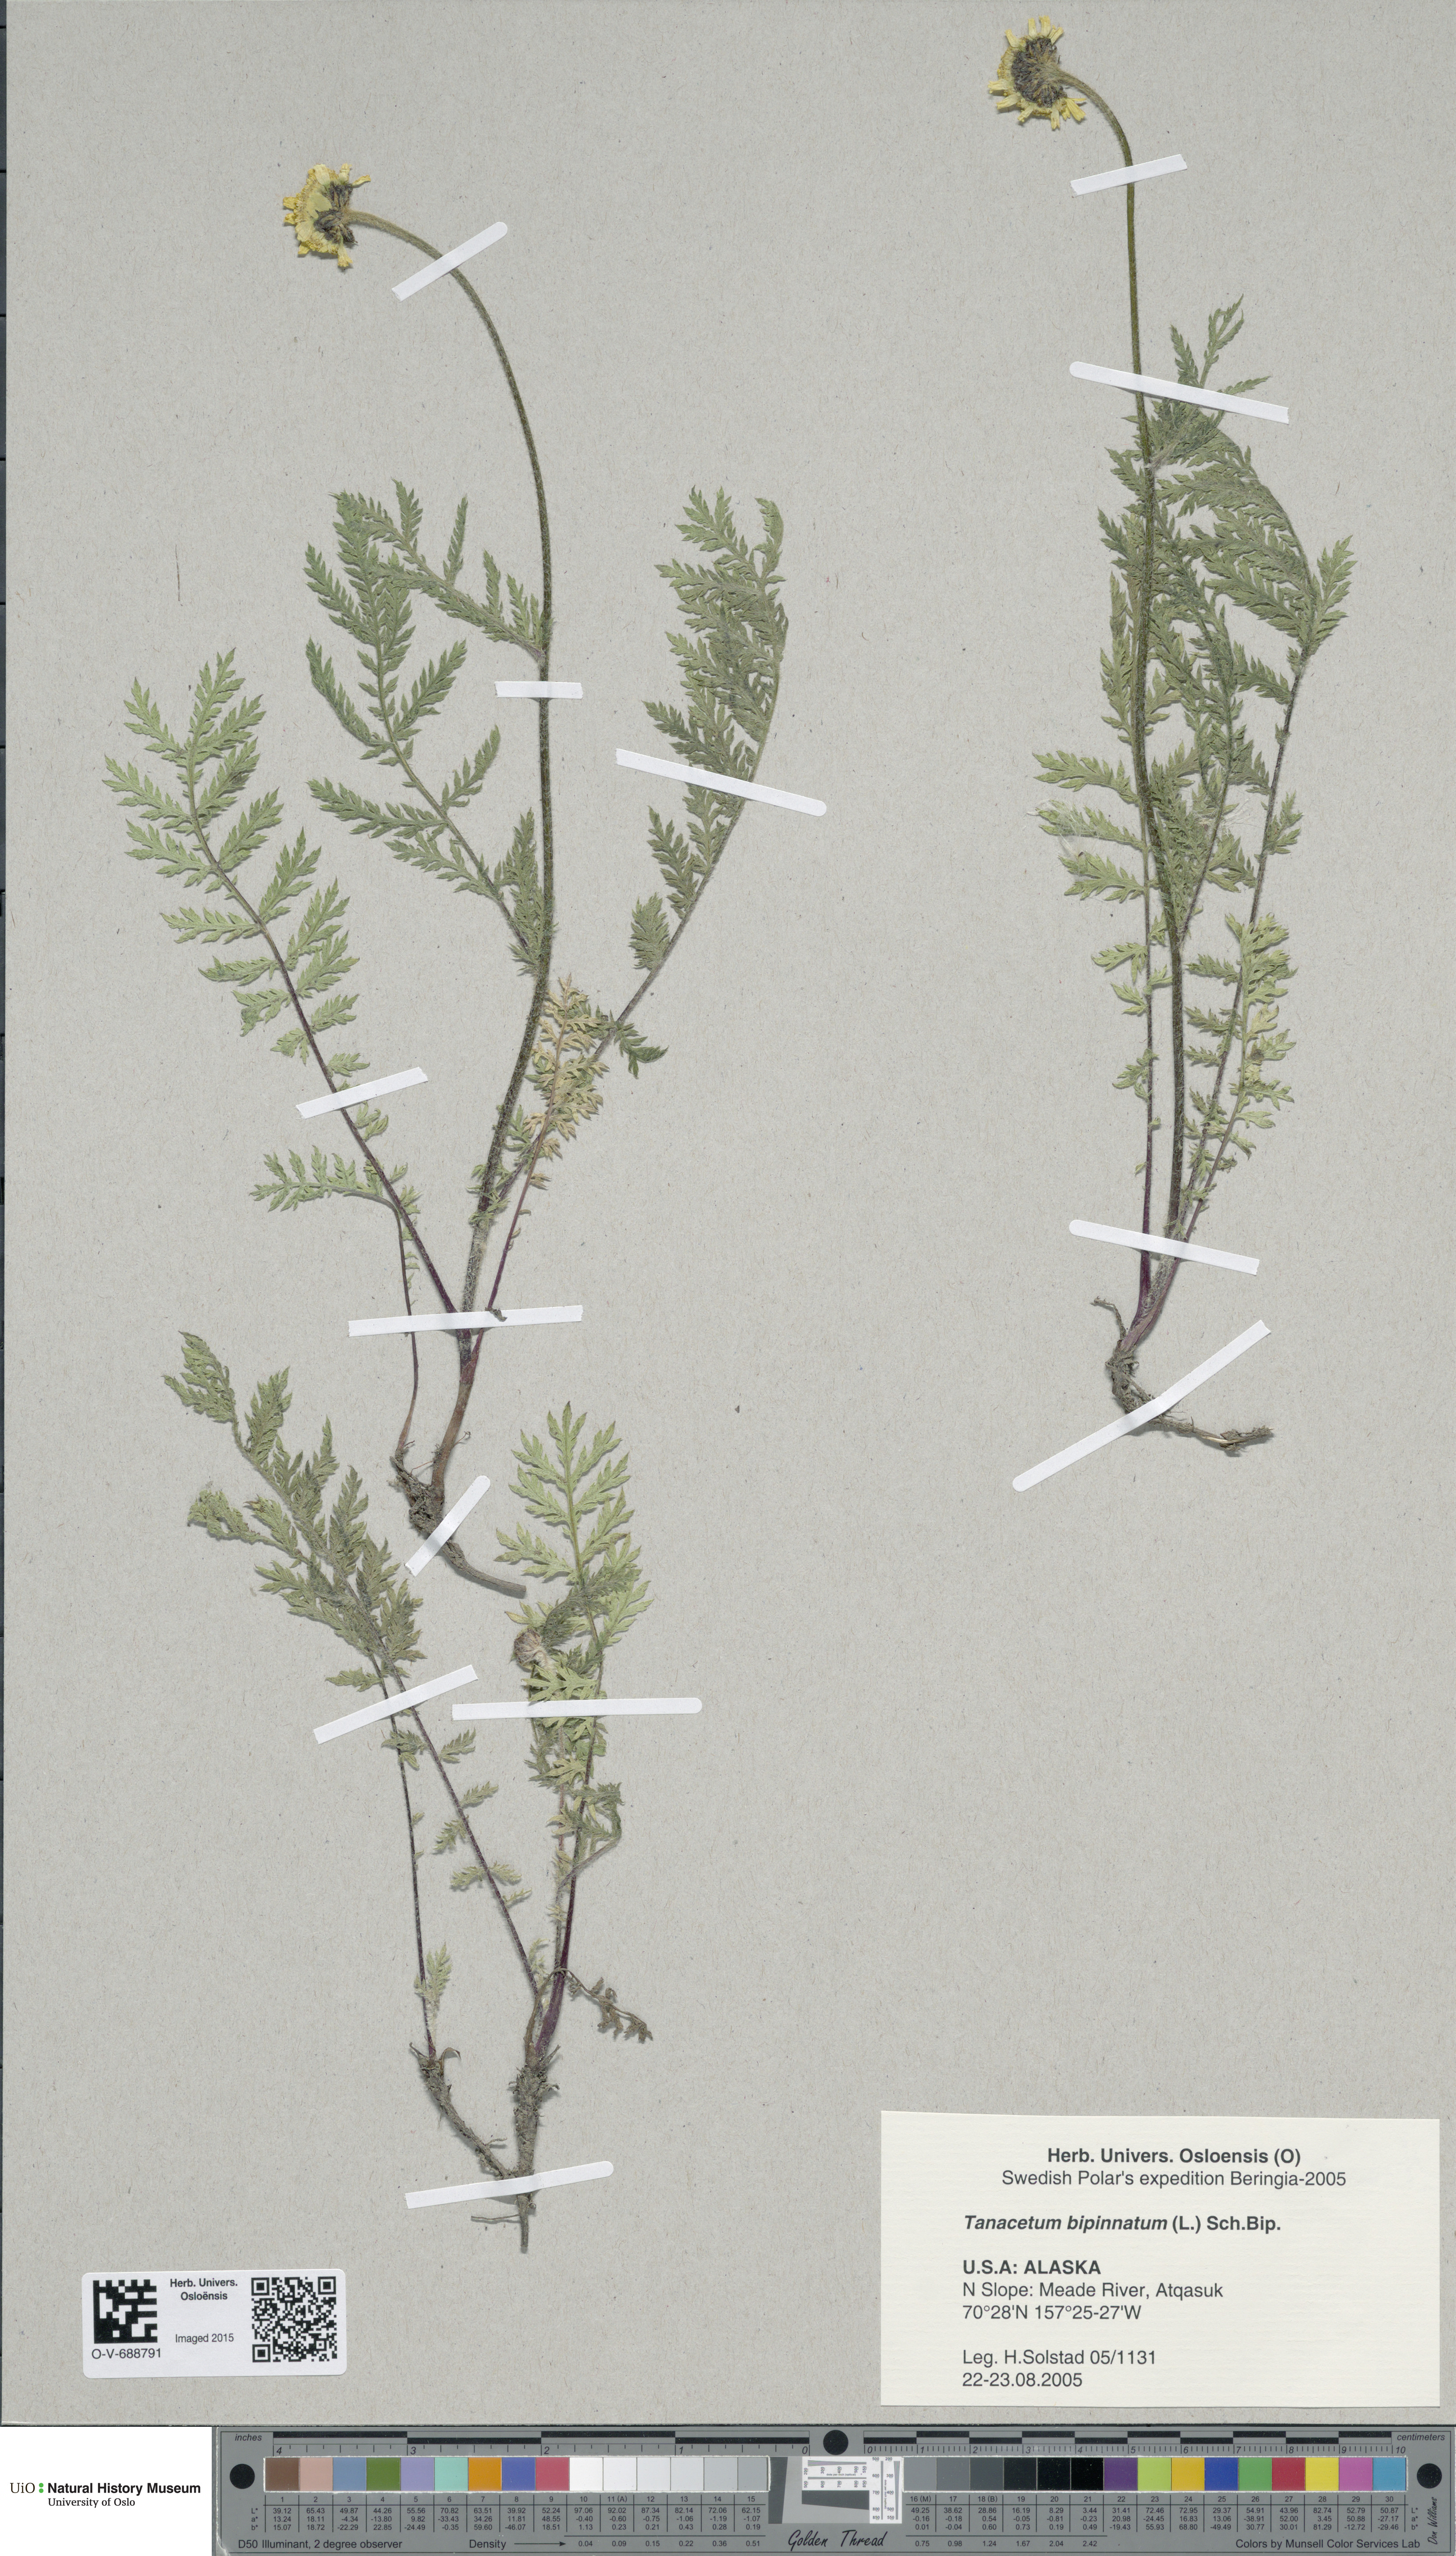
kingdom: Plantae
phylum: Tracheophyta
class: Magnoliopsida
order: Asterales
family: Asteraceae
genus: Tanacetum
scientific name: Tanacetum bipinnatum
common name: Dwarf tansy
